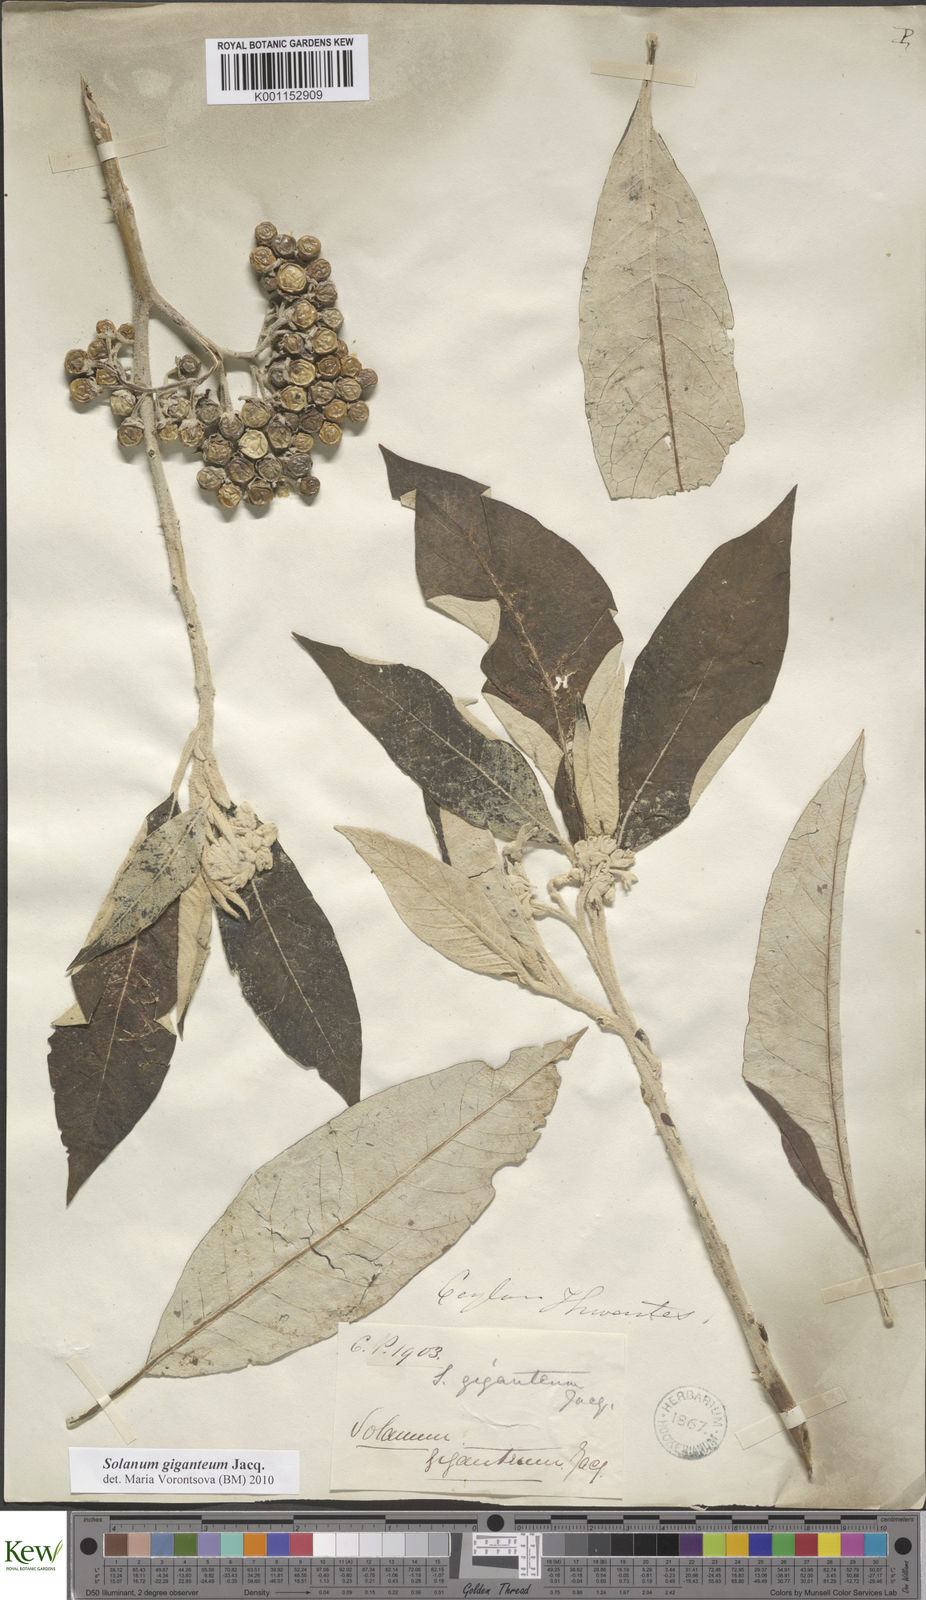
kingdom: Plantae
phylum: Tracheophyta
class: Magnoliopsida
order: Solanales
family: Solanaceae
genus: Solanum
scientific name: Solanum giganteum
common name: Healing-leaf-tree
